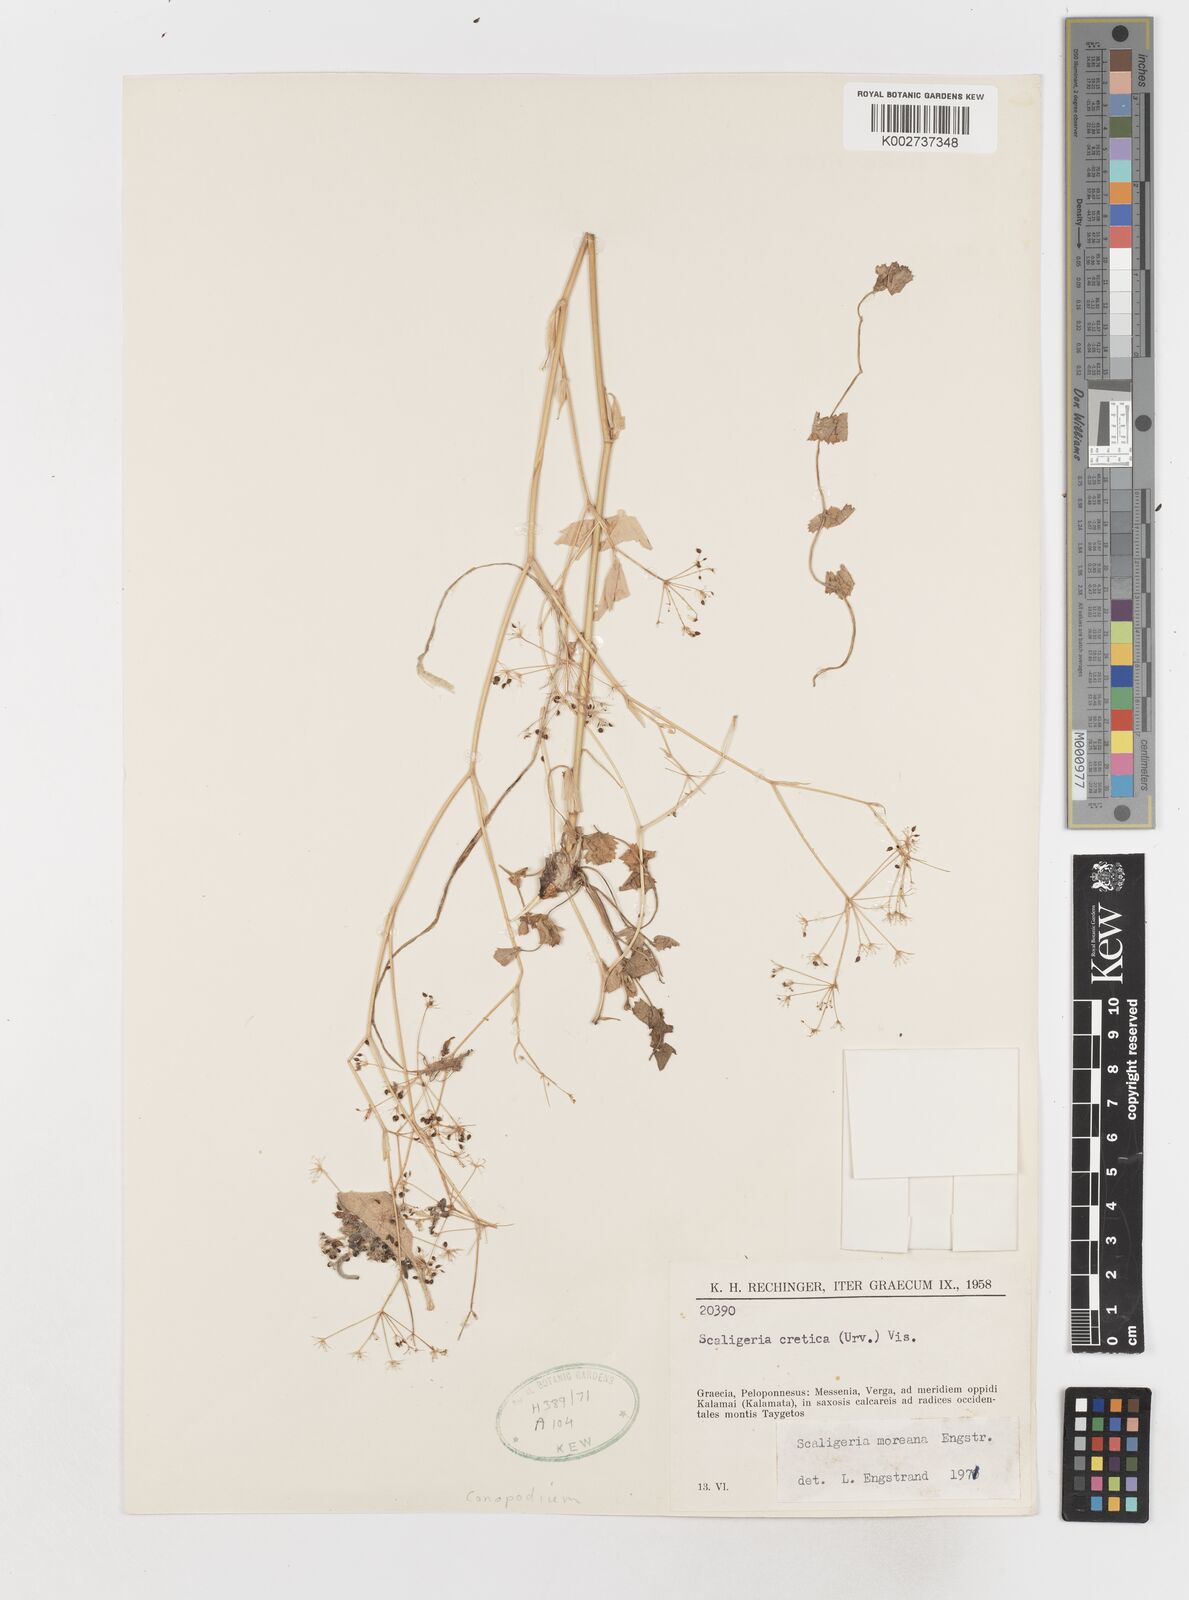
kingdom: Plantae
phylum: Tracheophyta
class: Magnoliopsida
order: Apiales
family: Apiaceae
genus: Scaligeria
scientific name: Scaligeria napiformis
